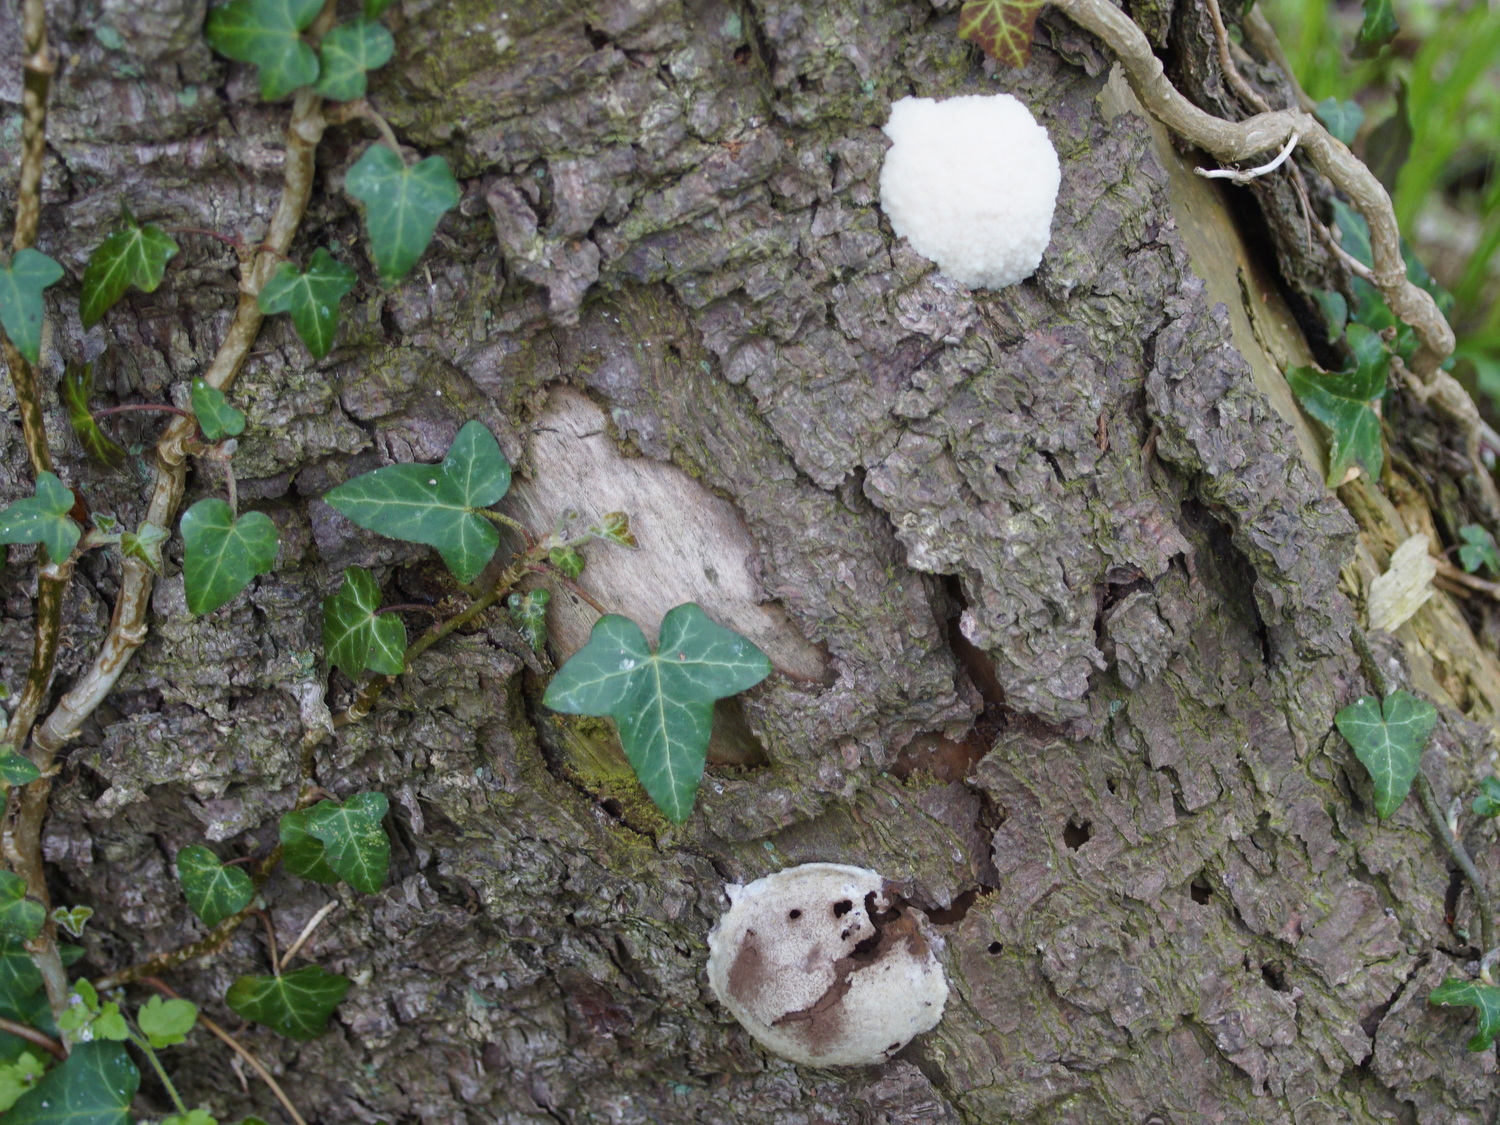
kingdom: Protozoa
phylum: Mycetozoa
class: Myxomycetes
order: Cribrariales
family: Tubiferaceae
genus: Reticularia
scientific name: Reticularia lycoperdon
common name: skinnende støvpude
